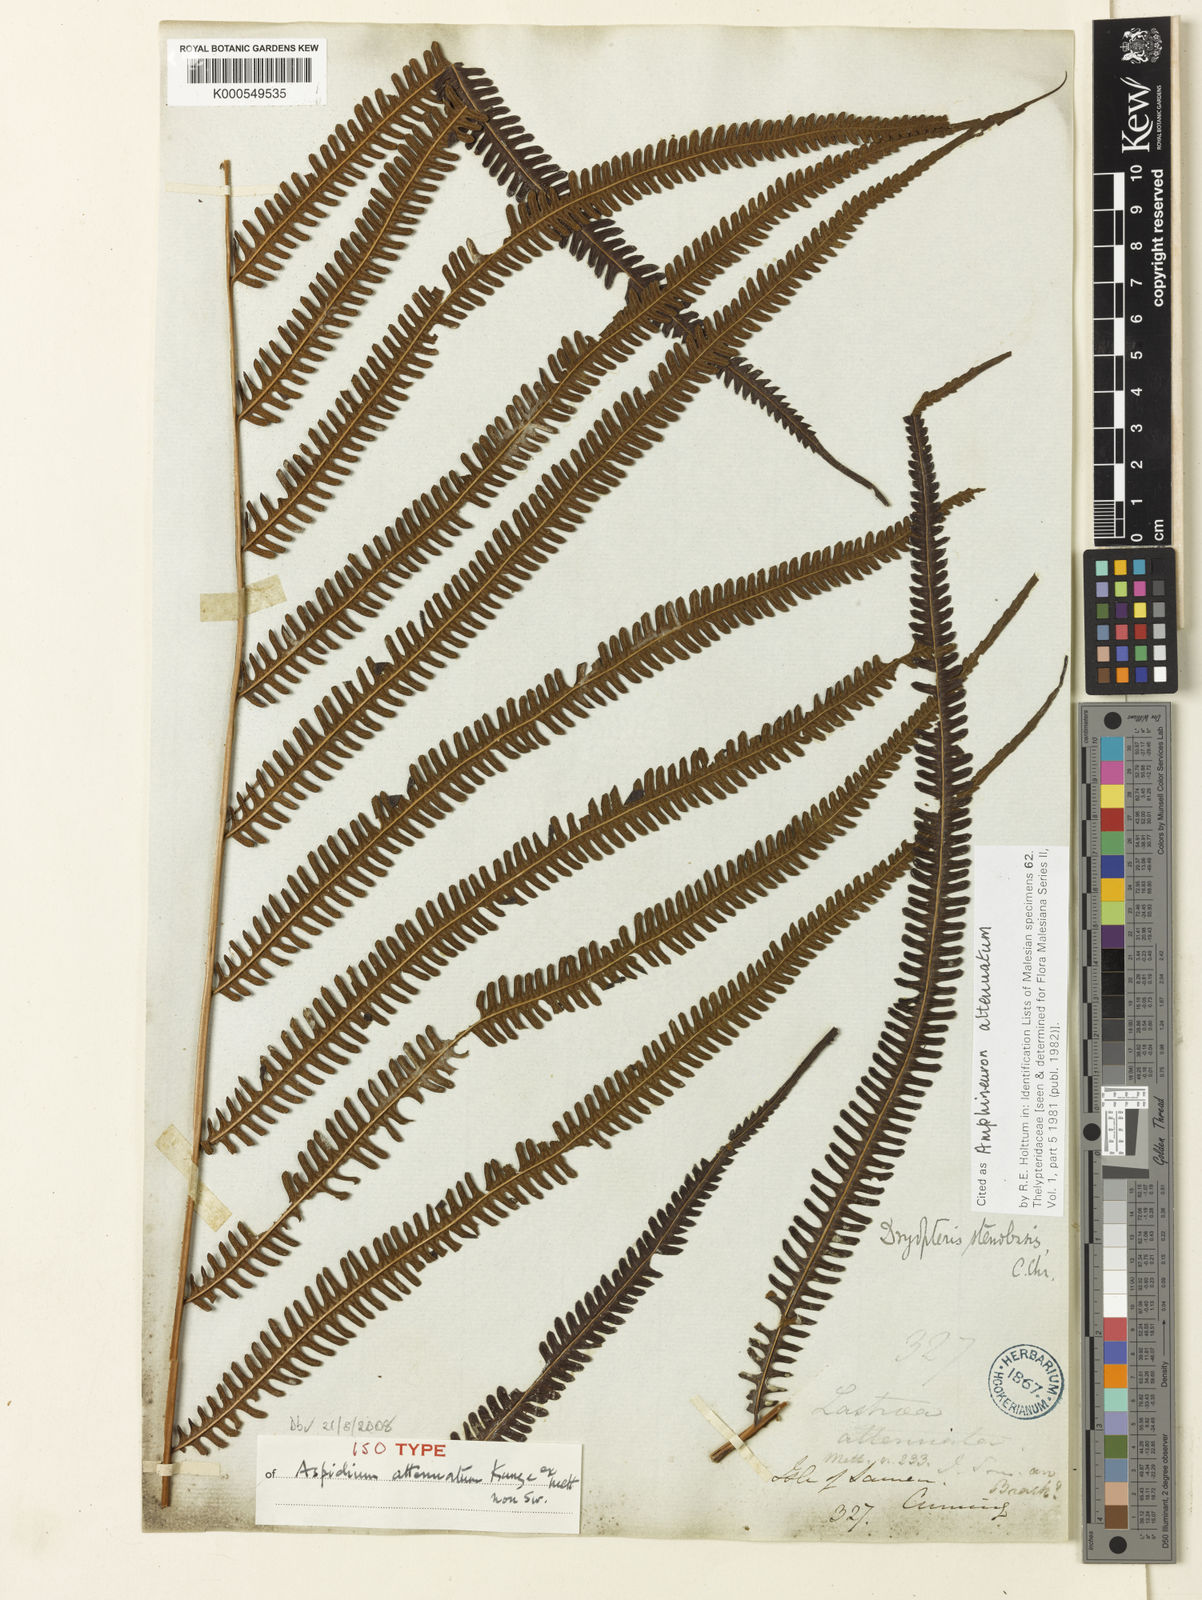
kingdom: Plantae
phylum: Tracheophyta
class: Polypodiopsida
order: Polypodiales
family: Thelypteridaceae
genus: Mesopteris
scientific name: Mesopteris attenuata
